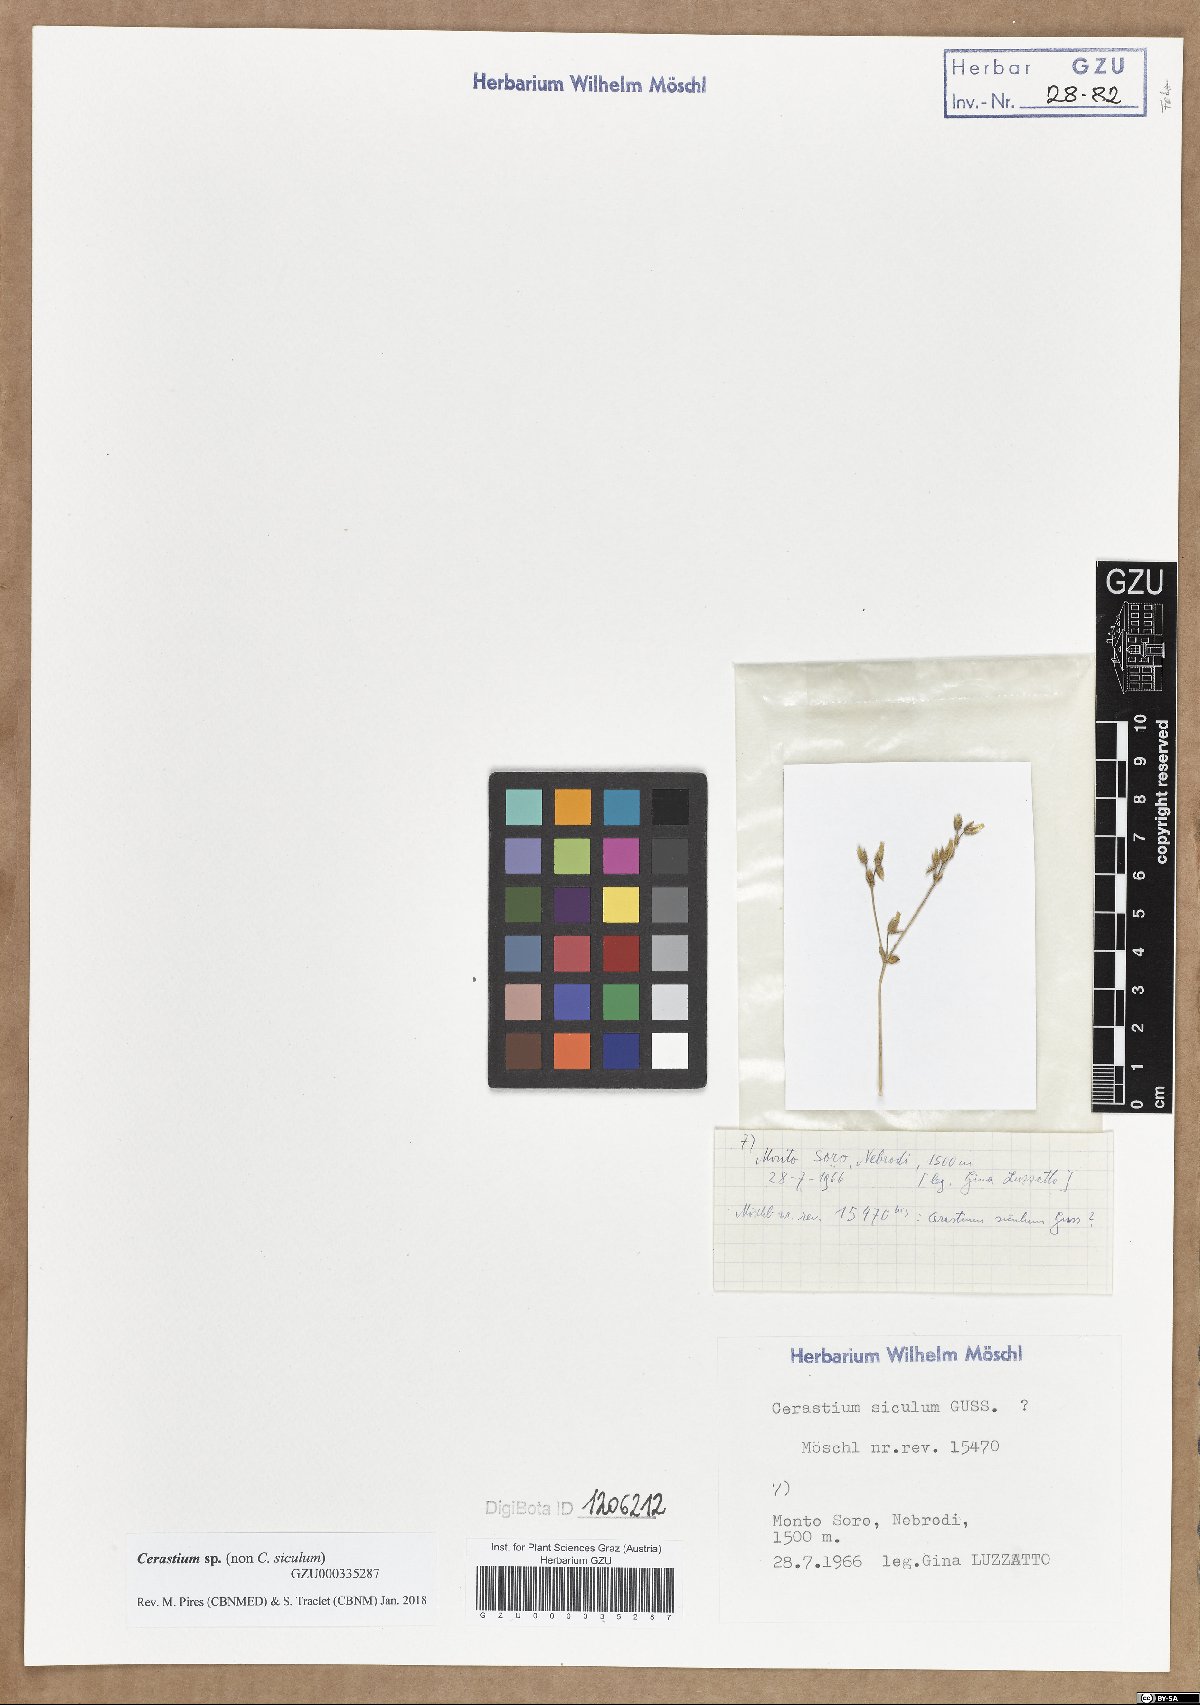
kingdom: Plantae
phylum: Tracheophyta
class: Magnoliopsida
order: Caryophyllales
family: Caryophyllaceae
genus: Cerastium
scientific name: Cerastium
